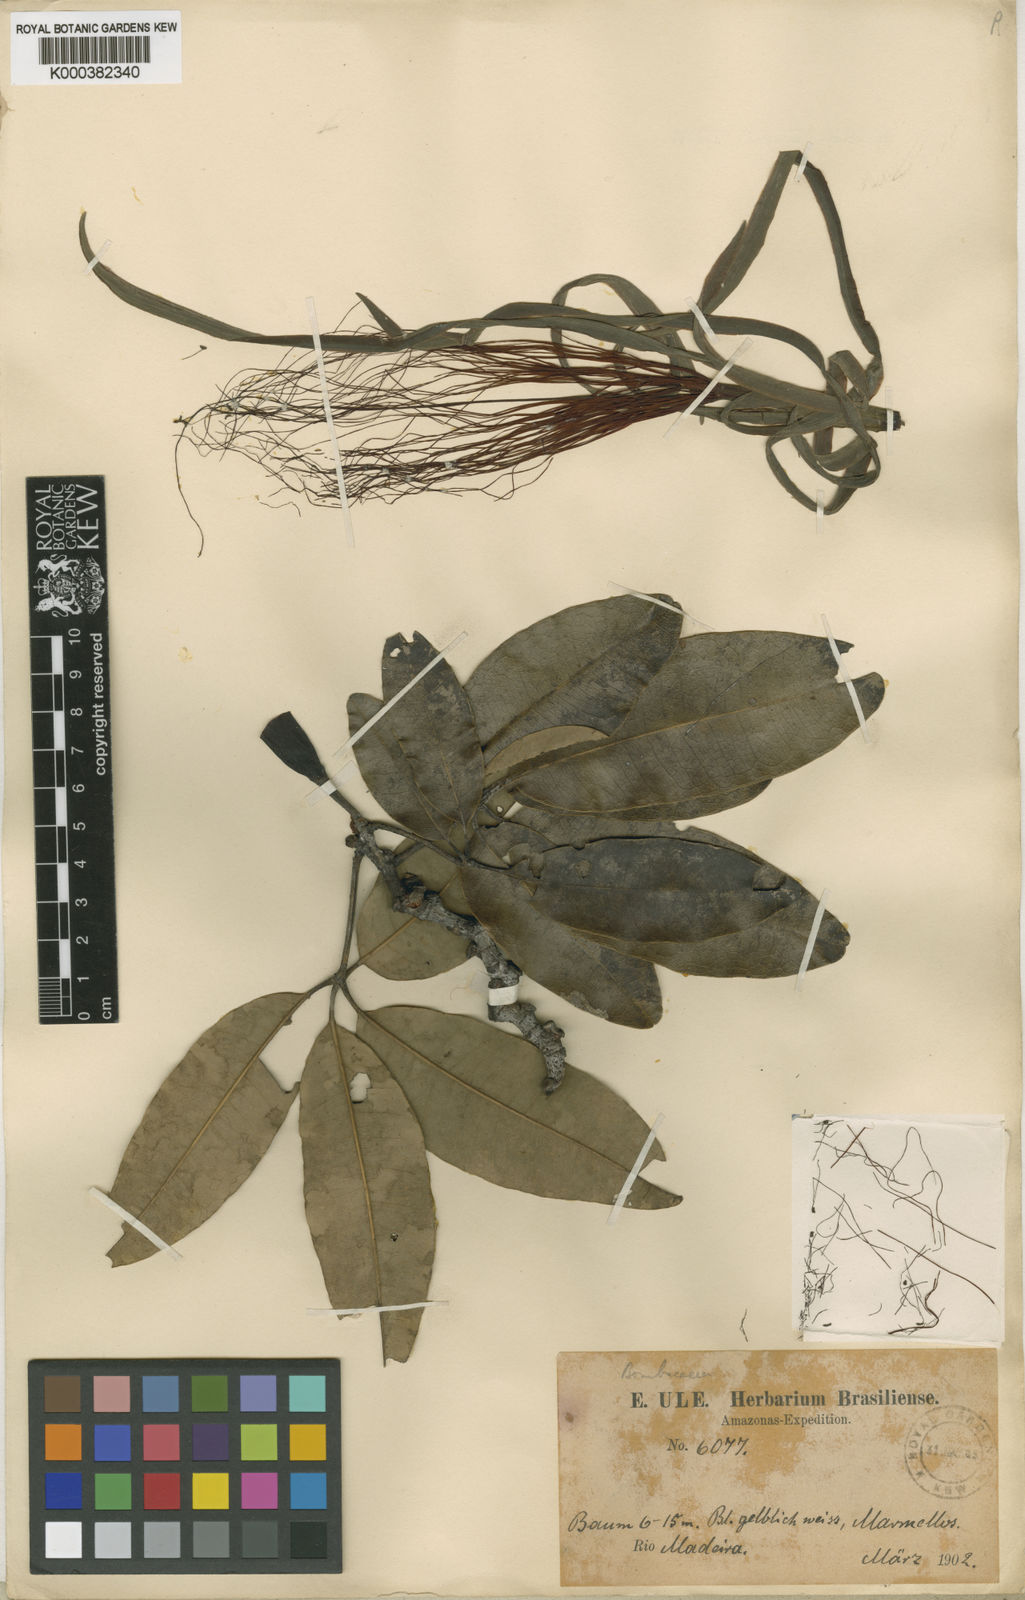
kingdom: Plantae
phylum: Tracheophyta
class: Magnoliopsida
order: Malvales
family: Malvaceae
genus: Pachira
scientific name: Pachira nitida
